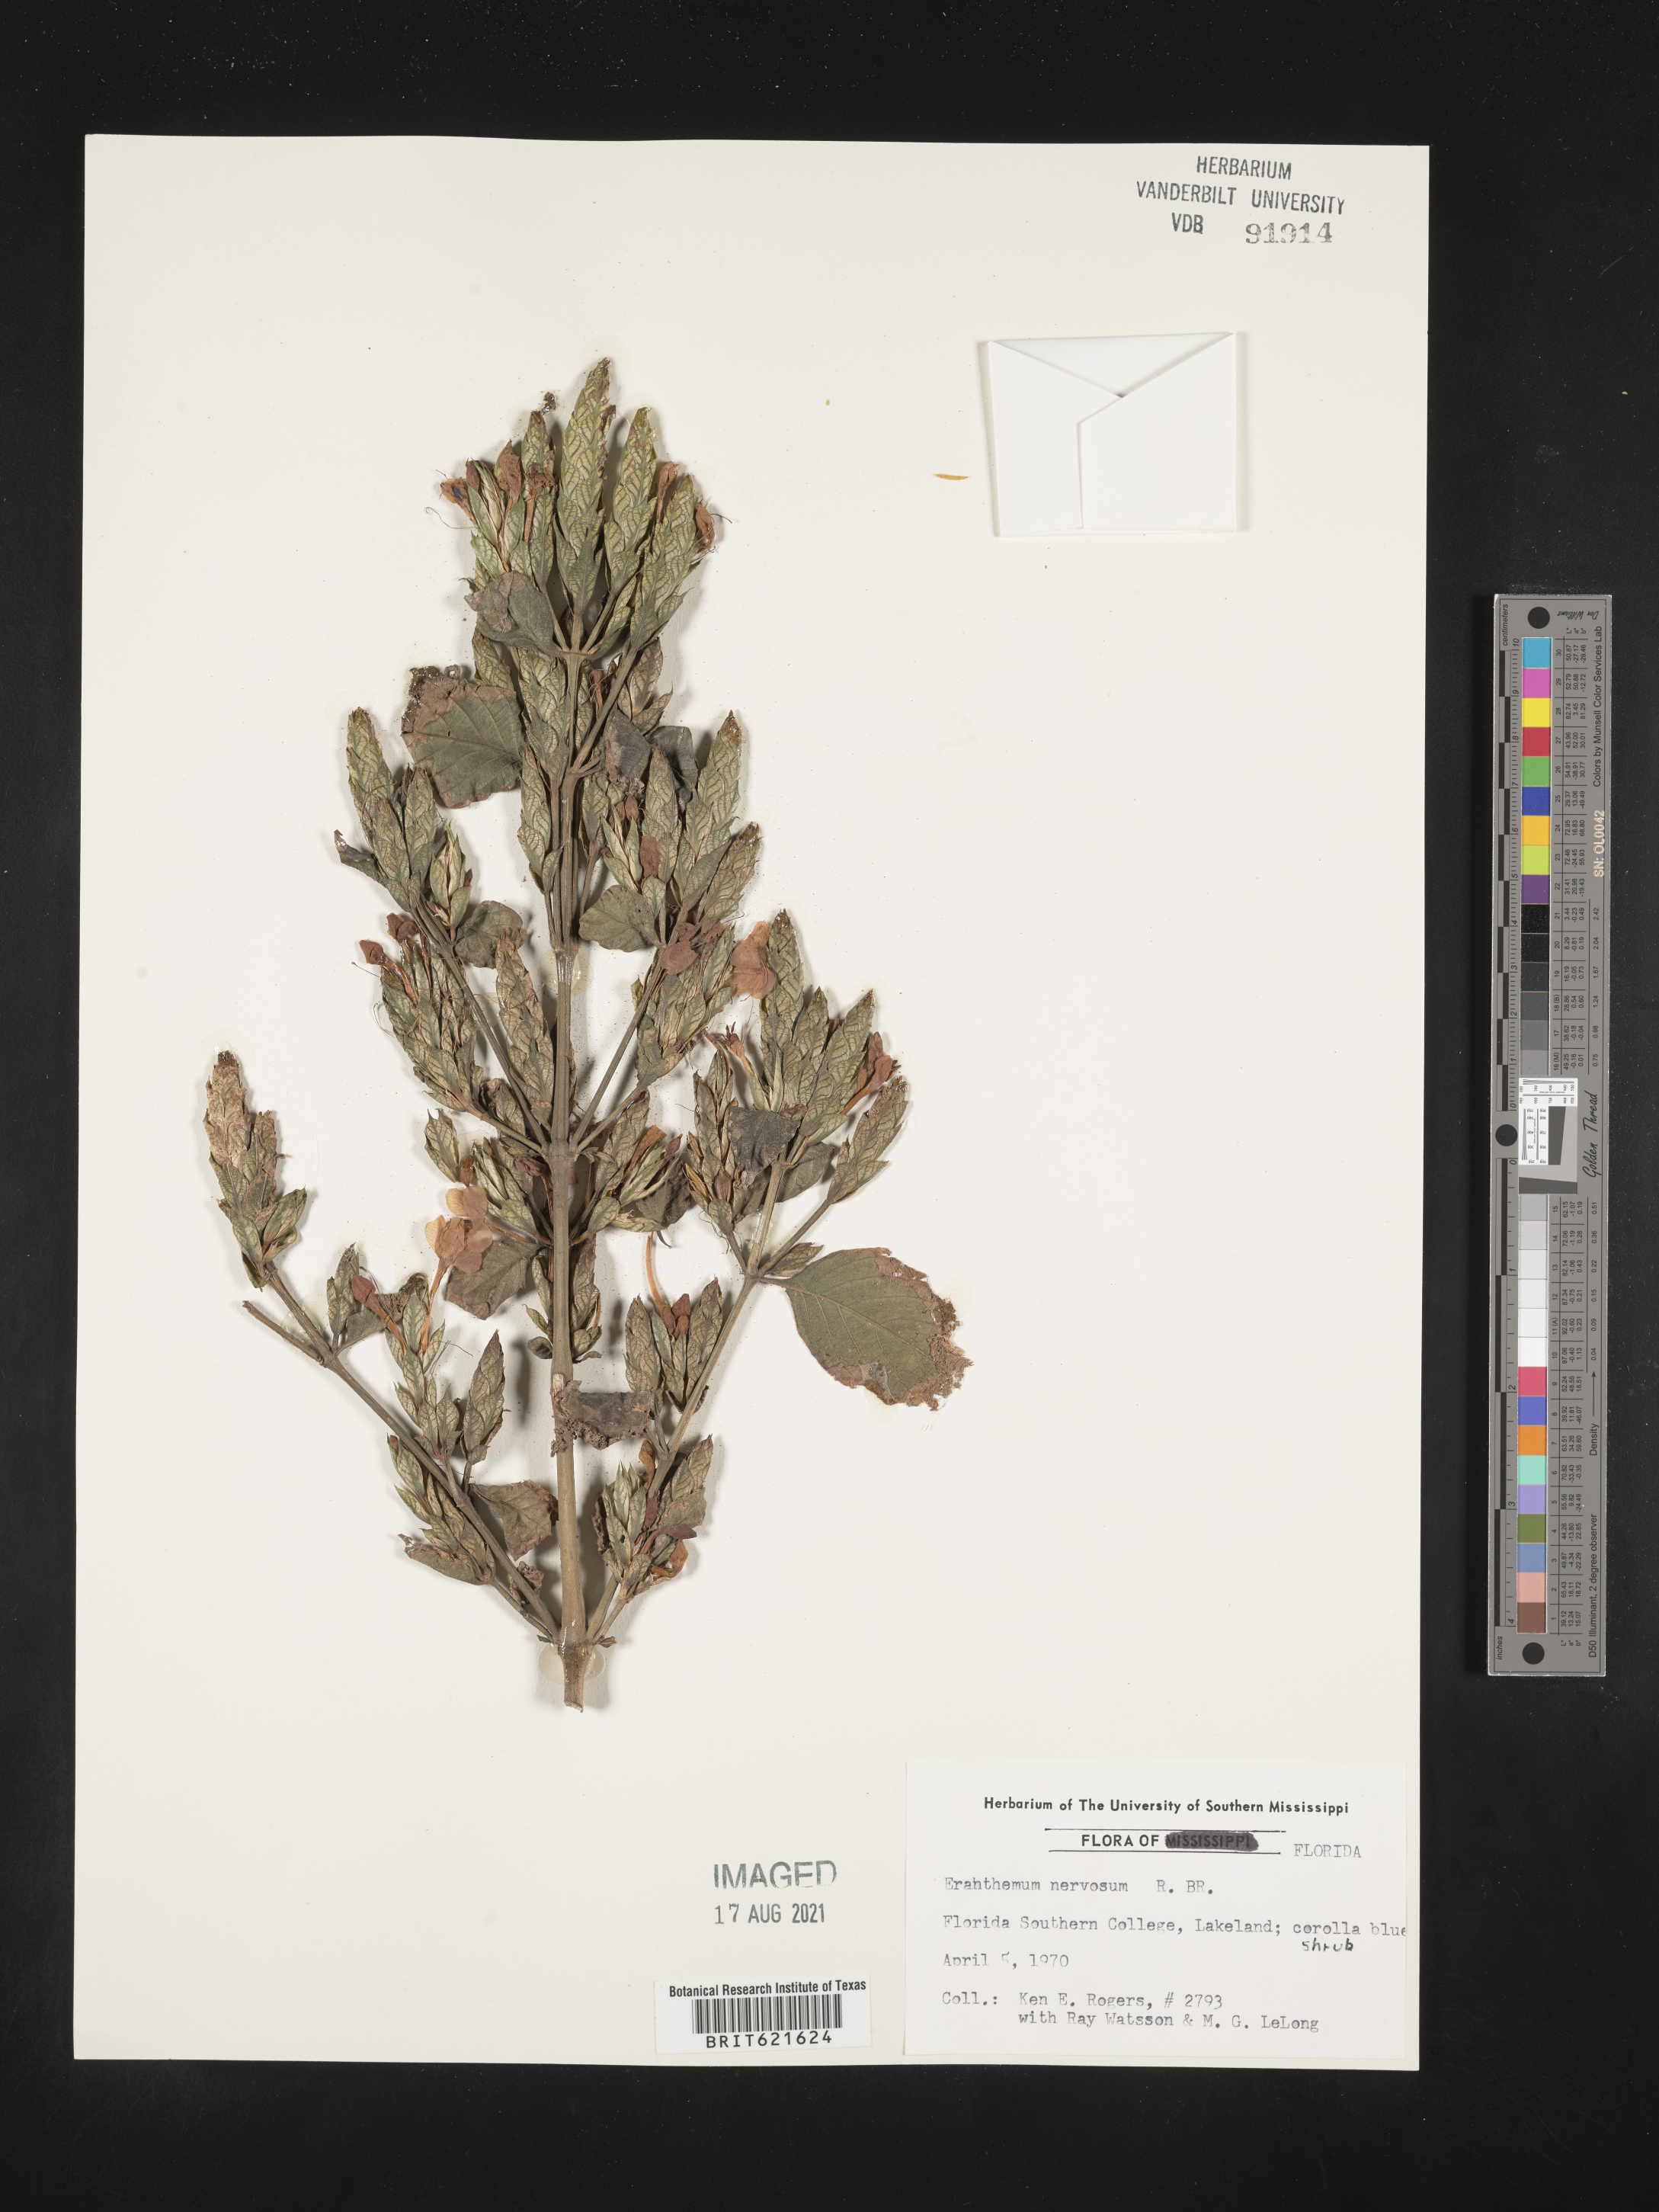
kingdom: Plantae
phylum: Tracheophyta
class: Magnoliopsida
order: Lamiales
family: Acanthaceae
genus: Eranthemum
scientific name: Eranthemum pulchellum
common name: Blue-sage
